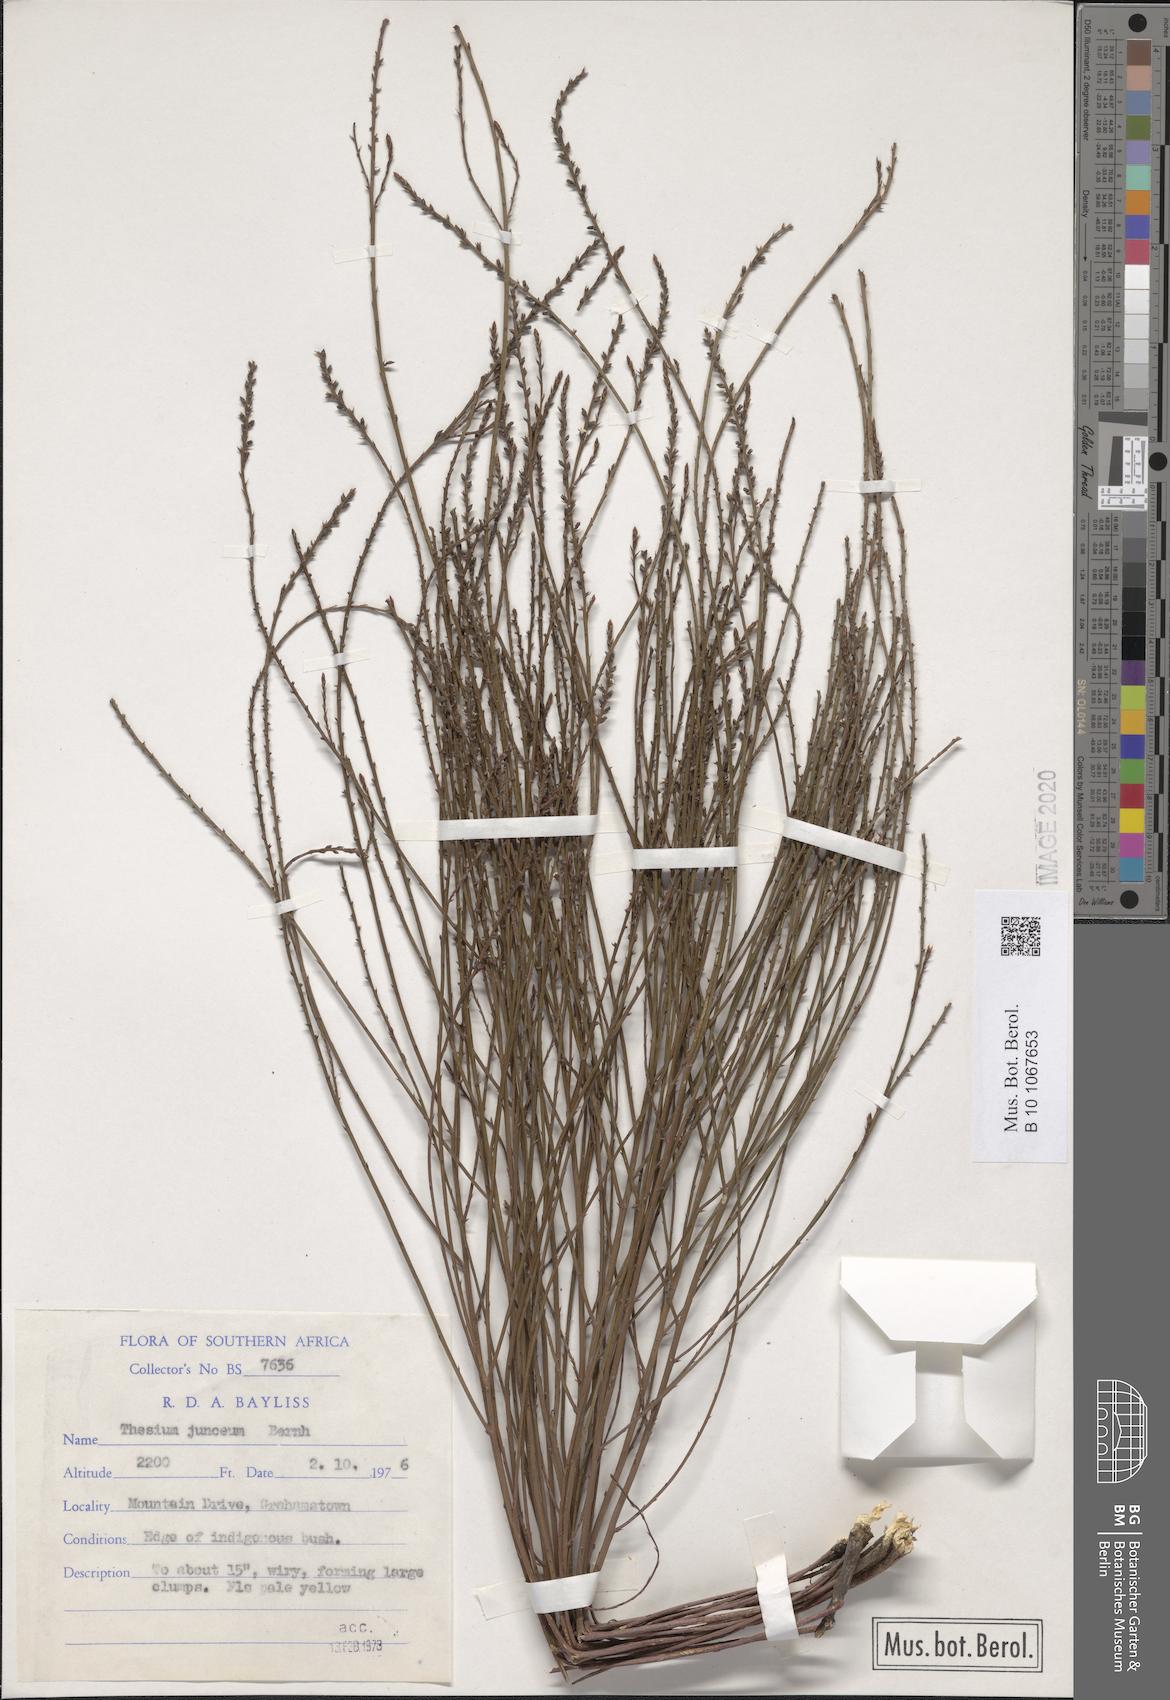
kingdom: Plantae
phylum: Tracheophyta
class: Magnoliopsida
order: Santalales
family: Thesiaceae
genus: Thesium
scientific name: Thesium junceum
